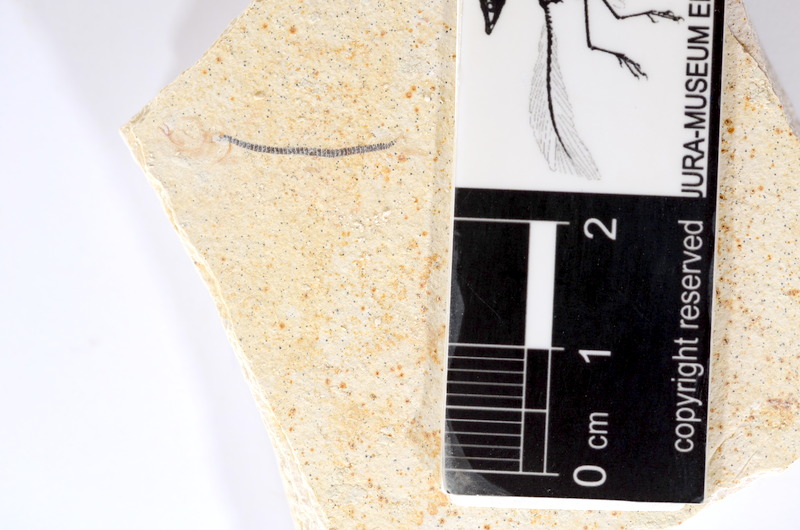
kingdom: Animalia
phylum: Chordata
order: Salmoniformes
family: Orthogonikleithridae
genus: Orthogonikleithrus
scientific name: Orthogonikleithrus hoelli
